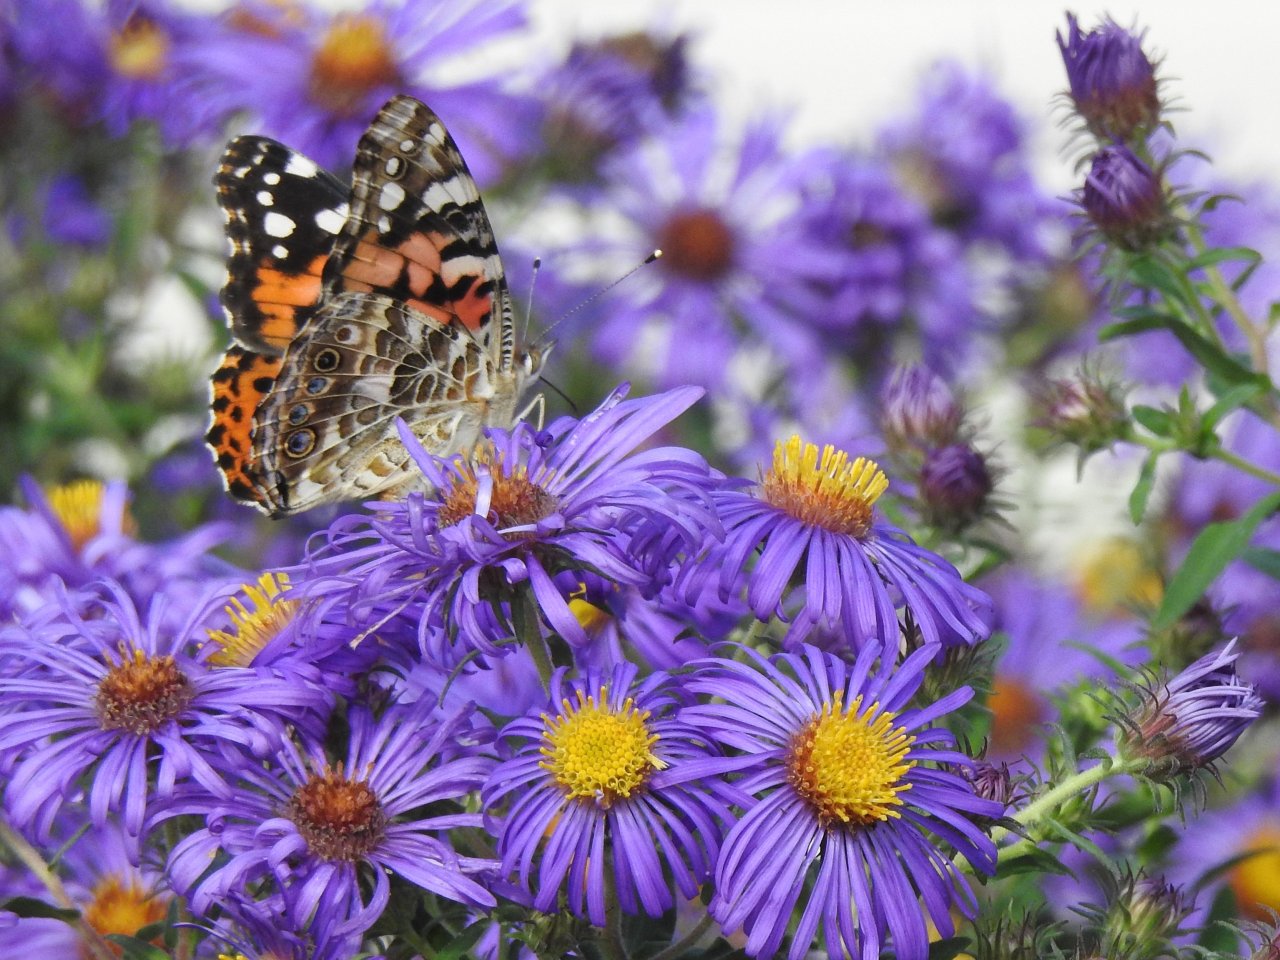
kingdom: Animalia
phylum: Arthropoda
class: Insecta
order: Lepidoptera
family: Nymphalidae
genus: Vanessa
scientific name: Vanessa cardui
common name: Painted Lady
